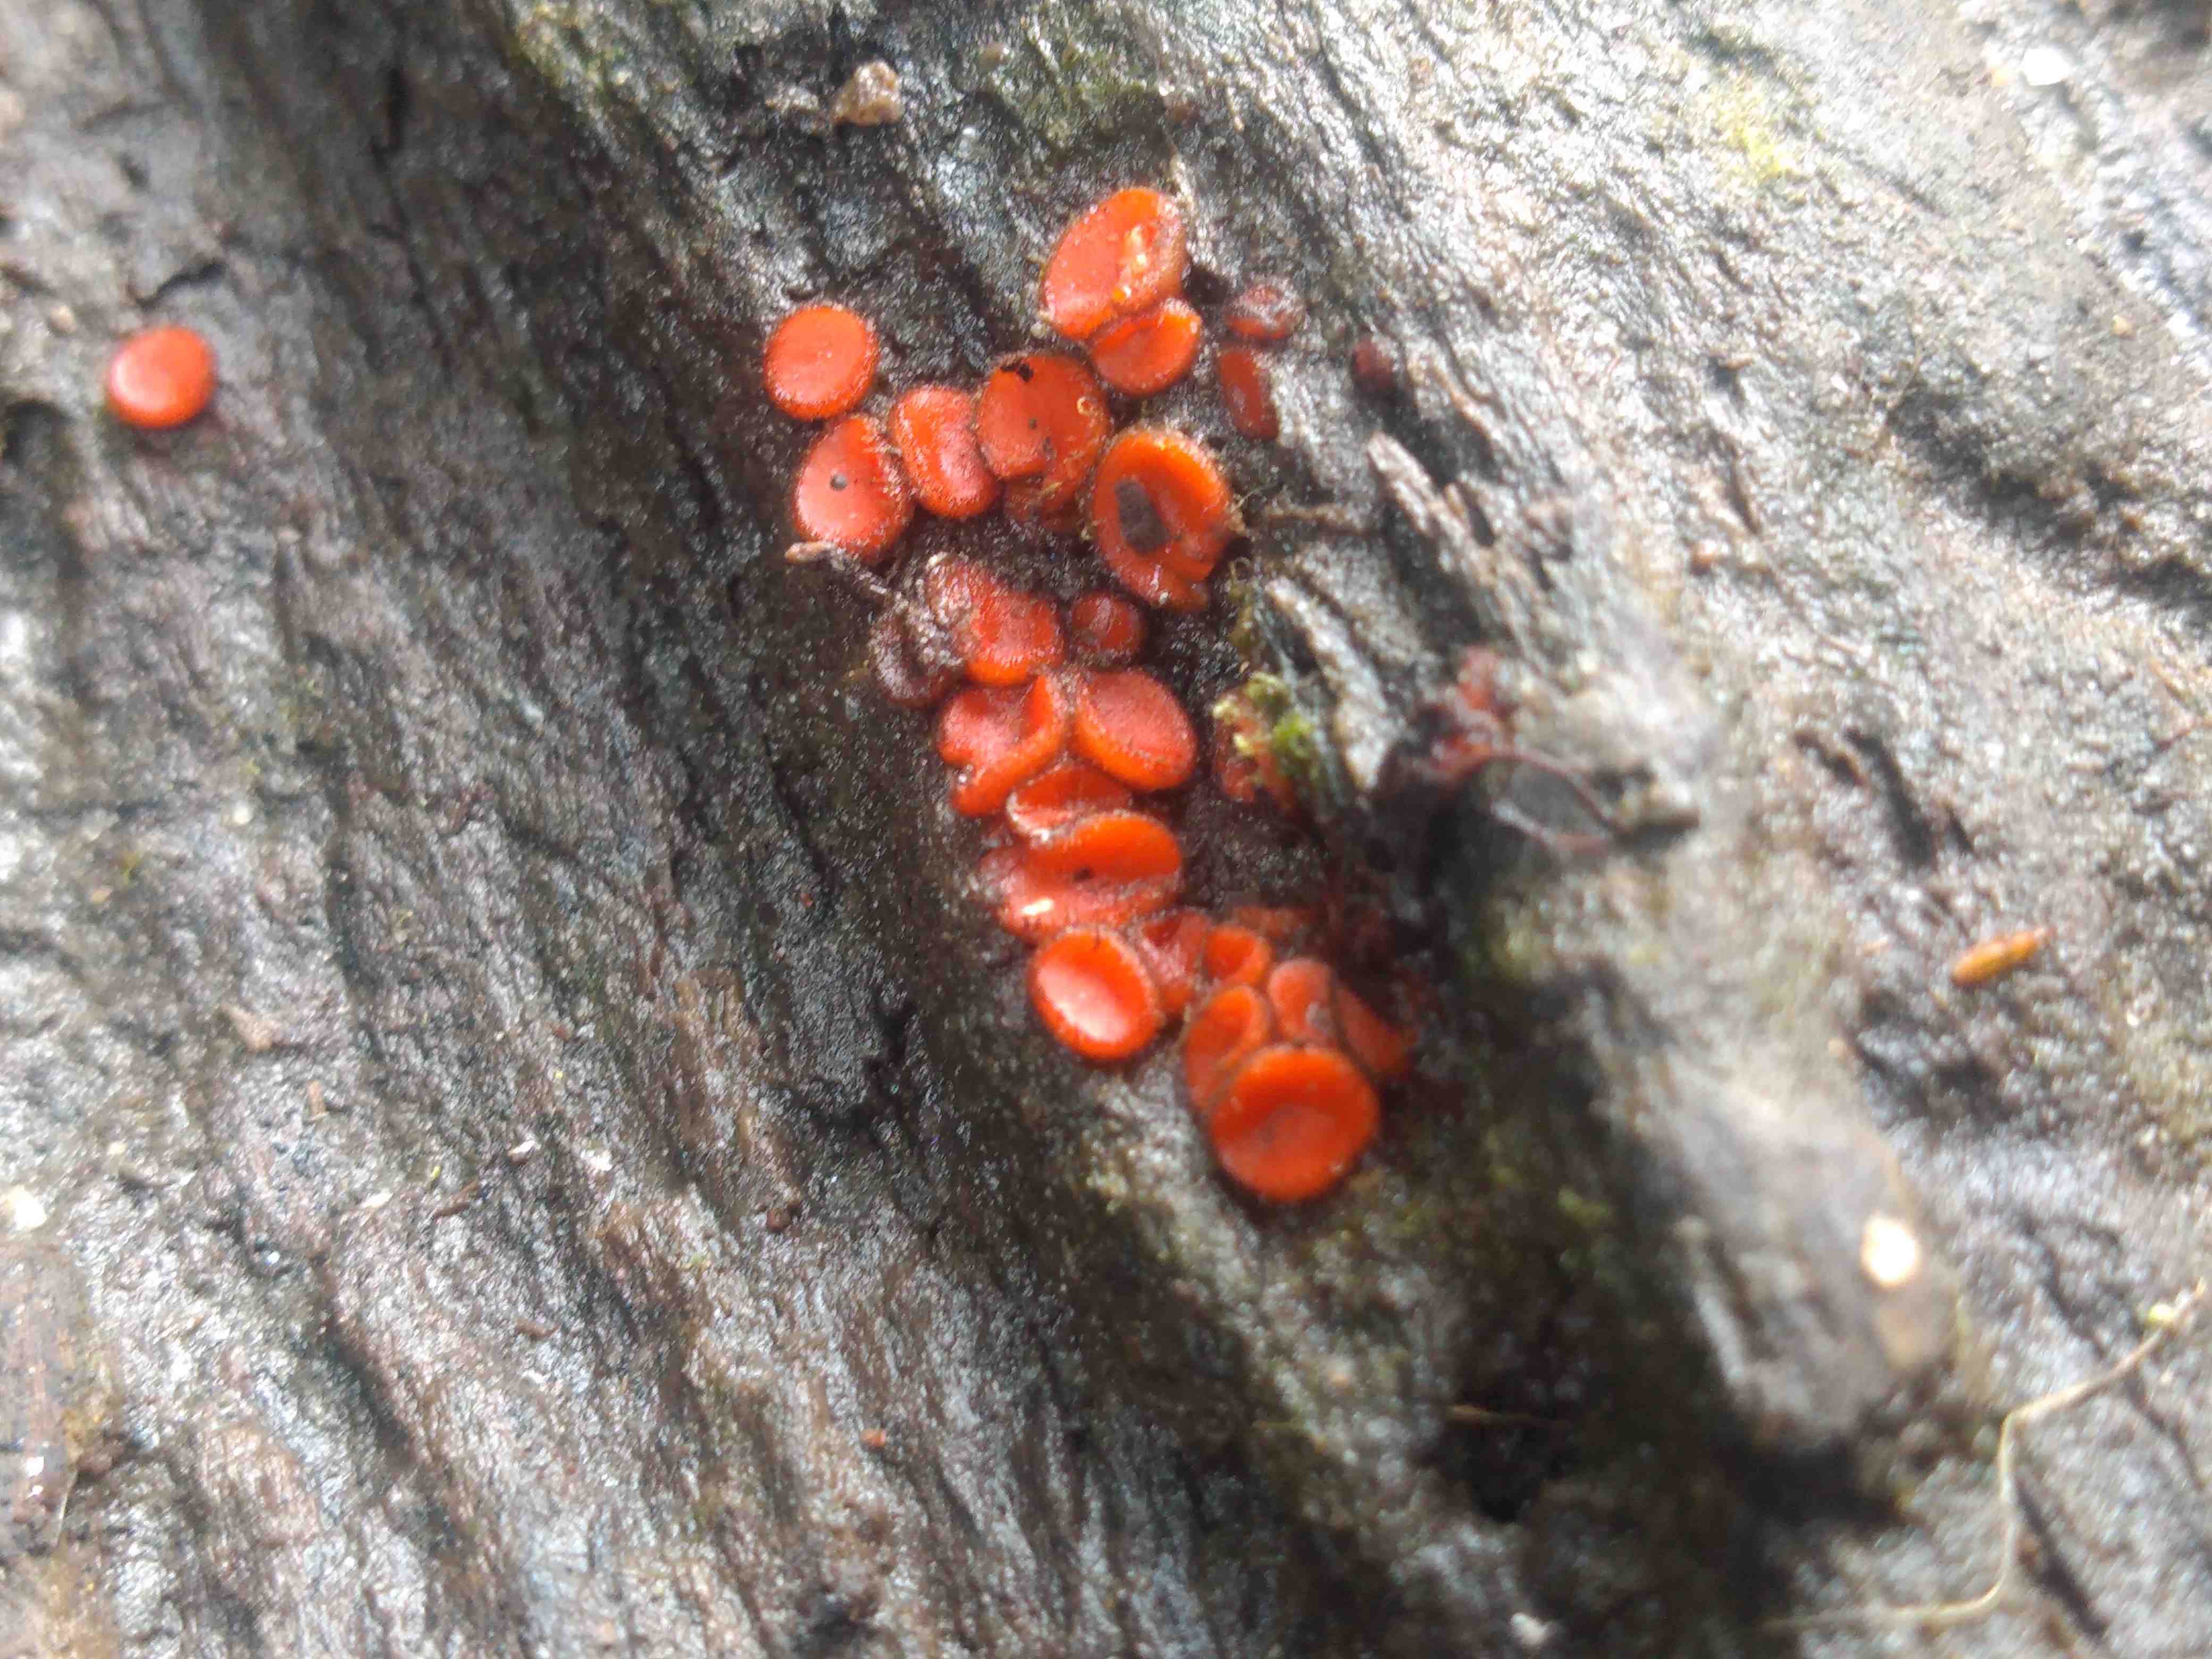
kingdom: Fungi
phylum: Ascomycota
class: Pezizomycetes
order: Pezizales
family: Pyronemataceae
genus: Scutellinia
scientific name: Scutellinia
